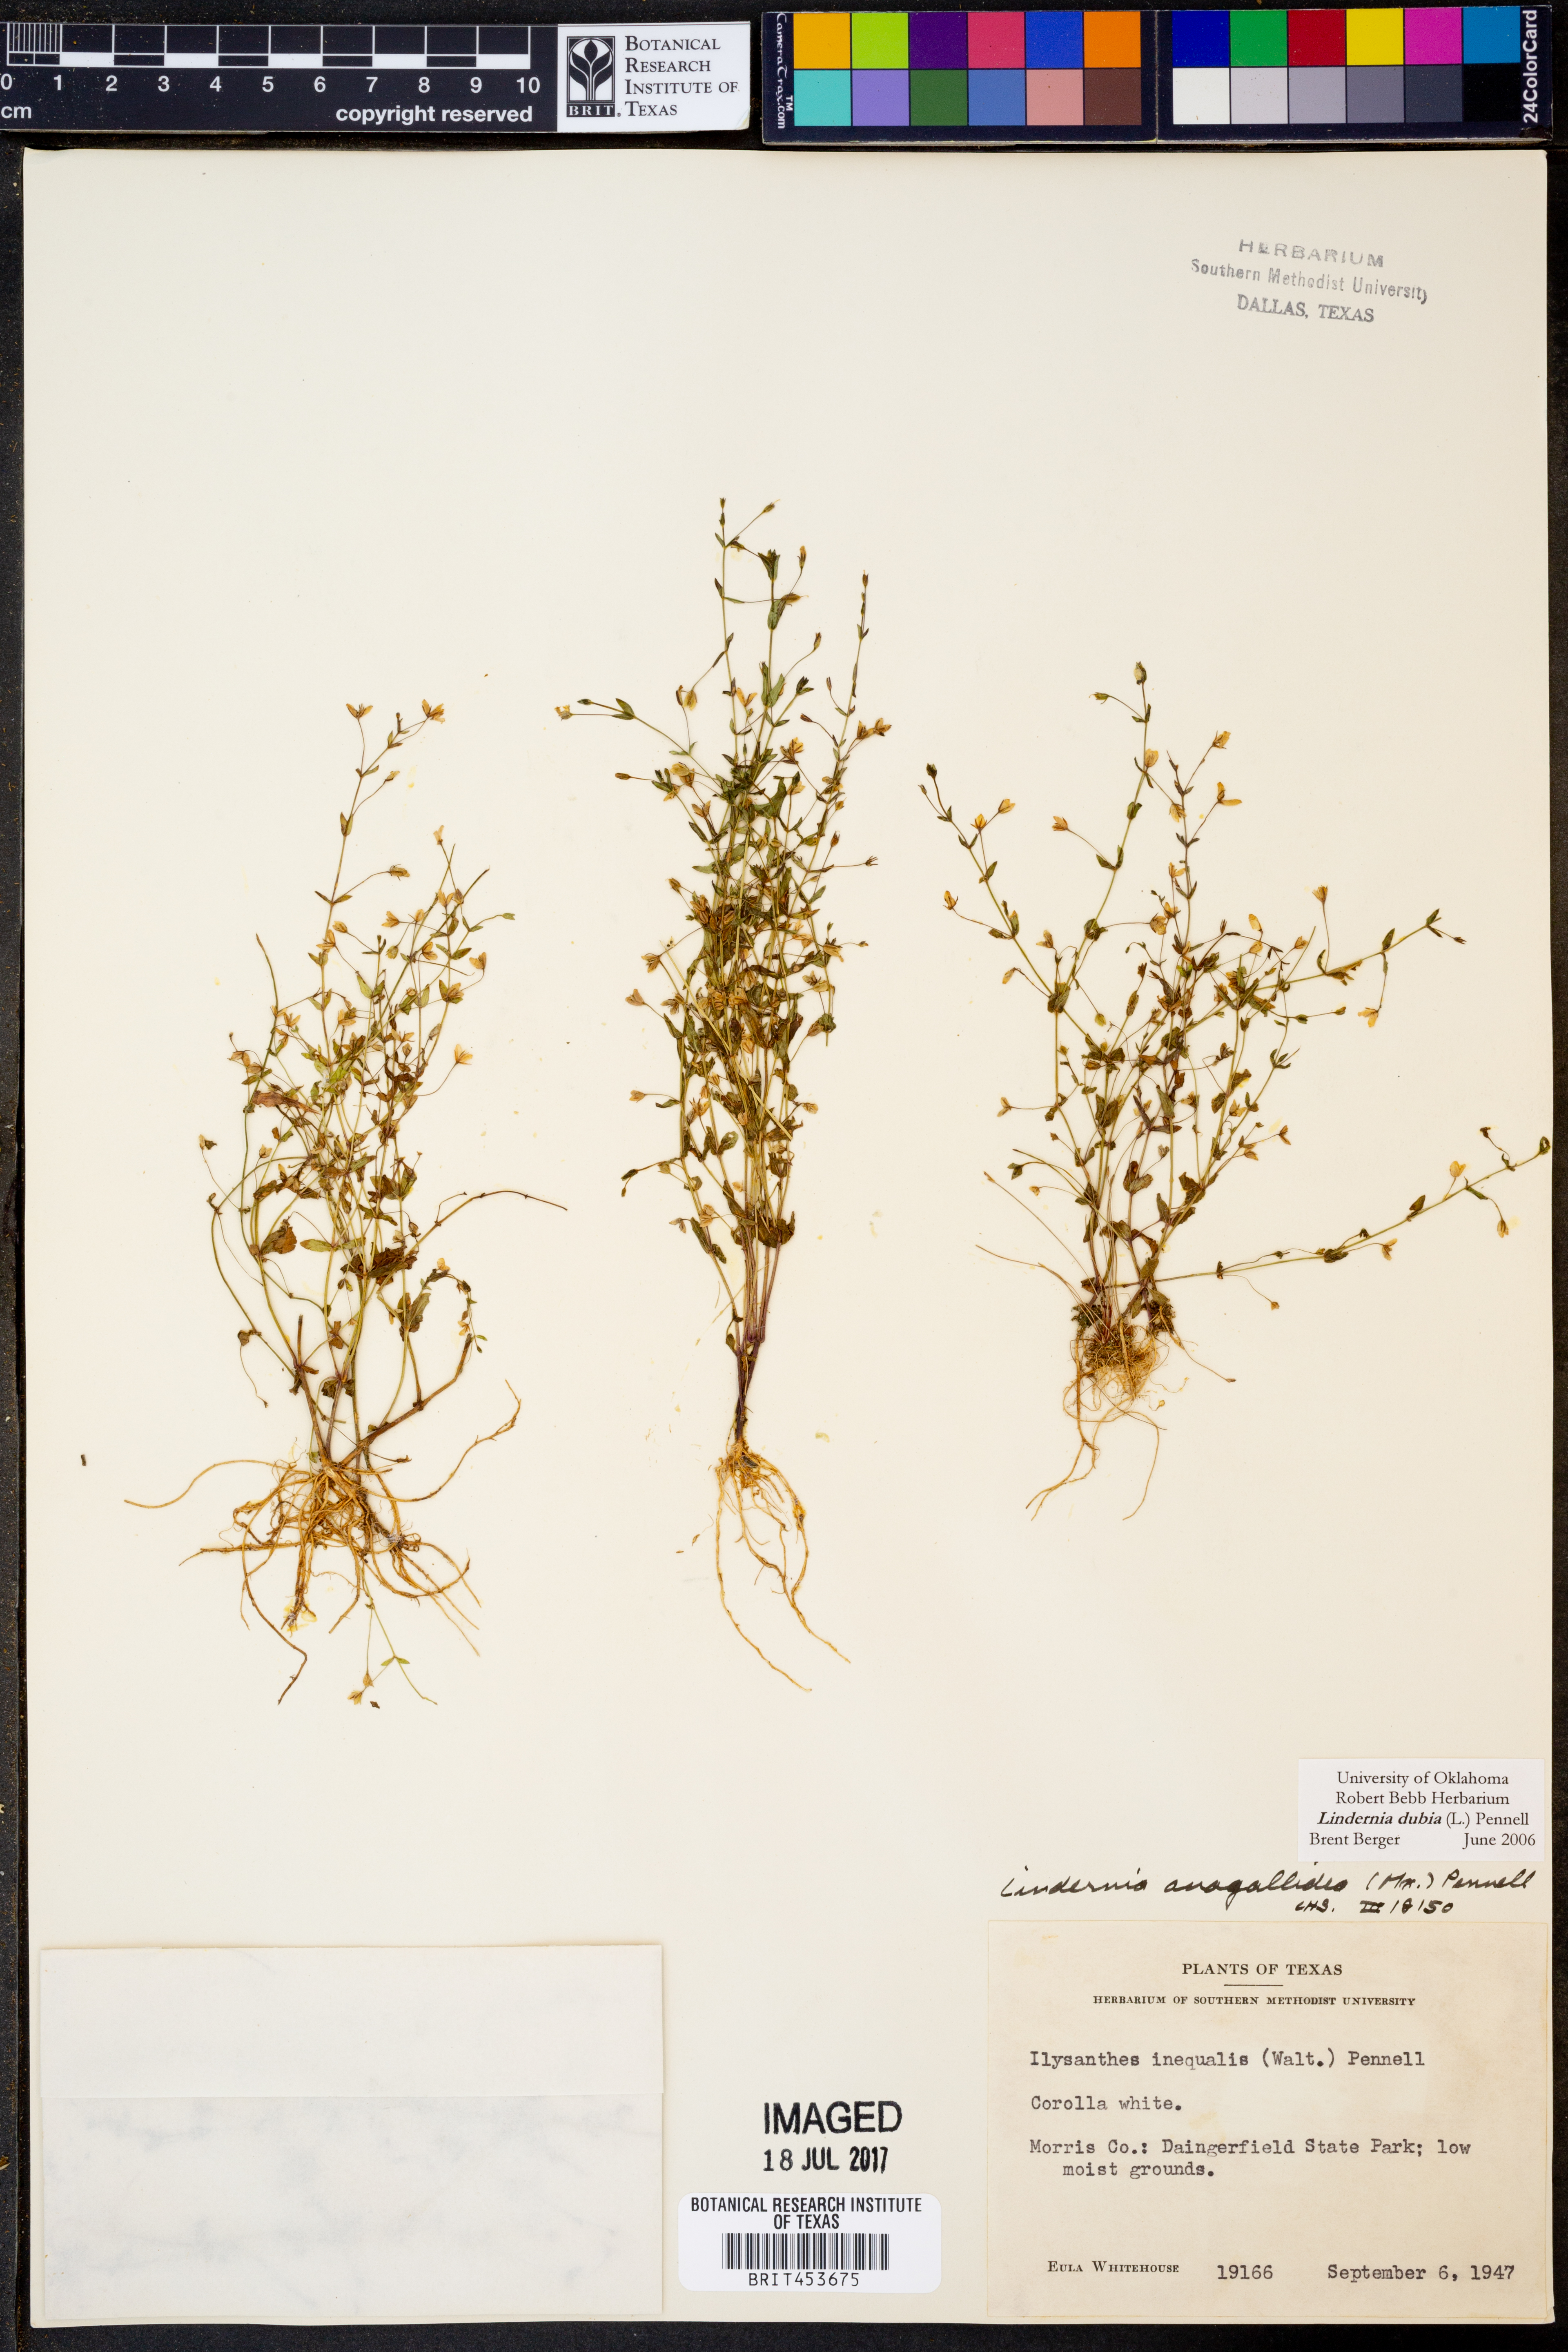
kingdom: Plantae
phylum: Tracheophyta
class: Magnoliopsida
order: Lamiales
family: Linderniaceae
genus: Lindernia
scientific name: Lindernia dubia
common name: Annual false pimpernel
